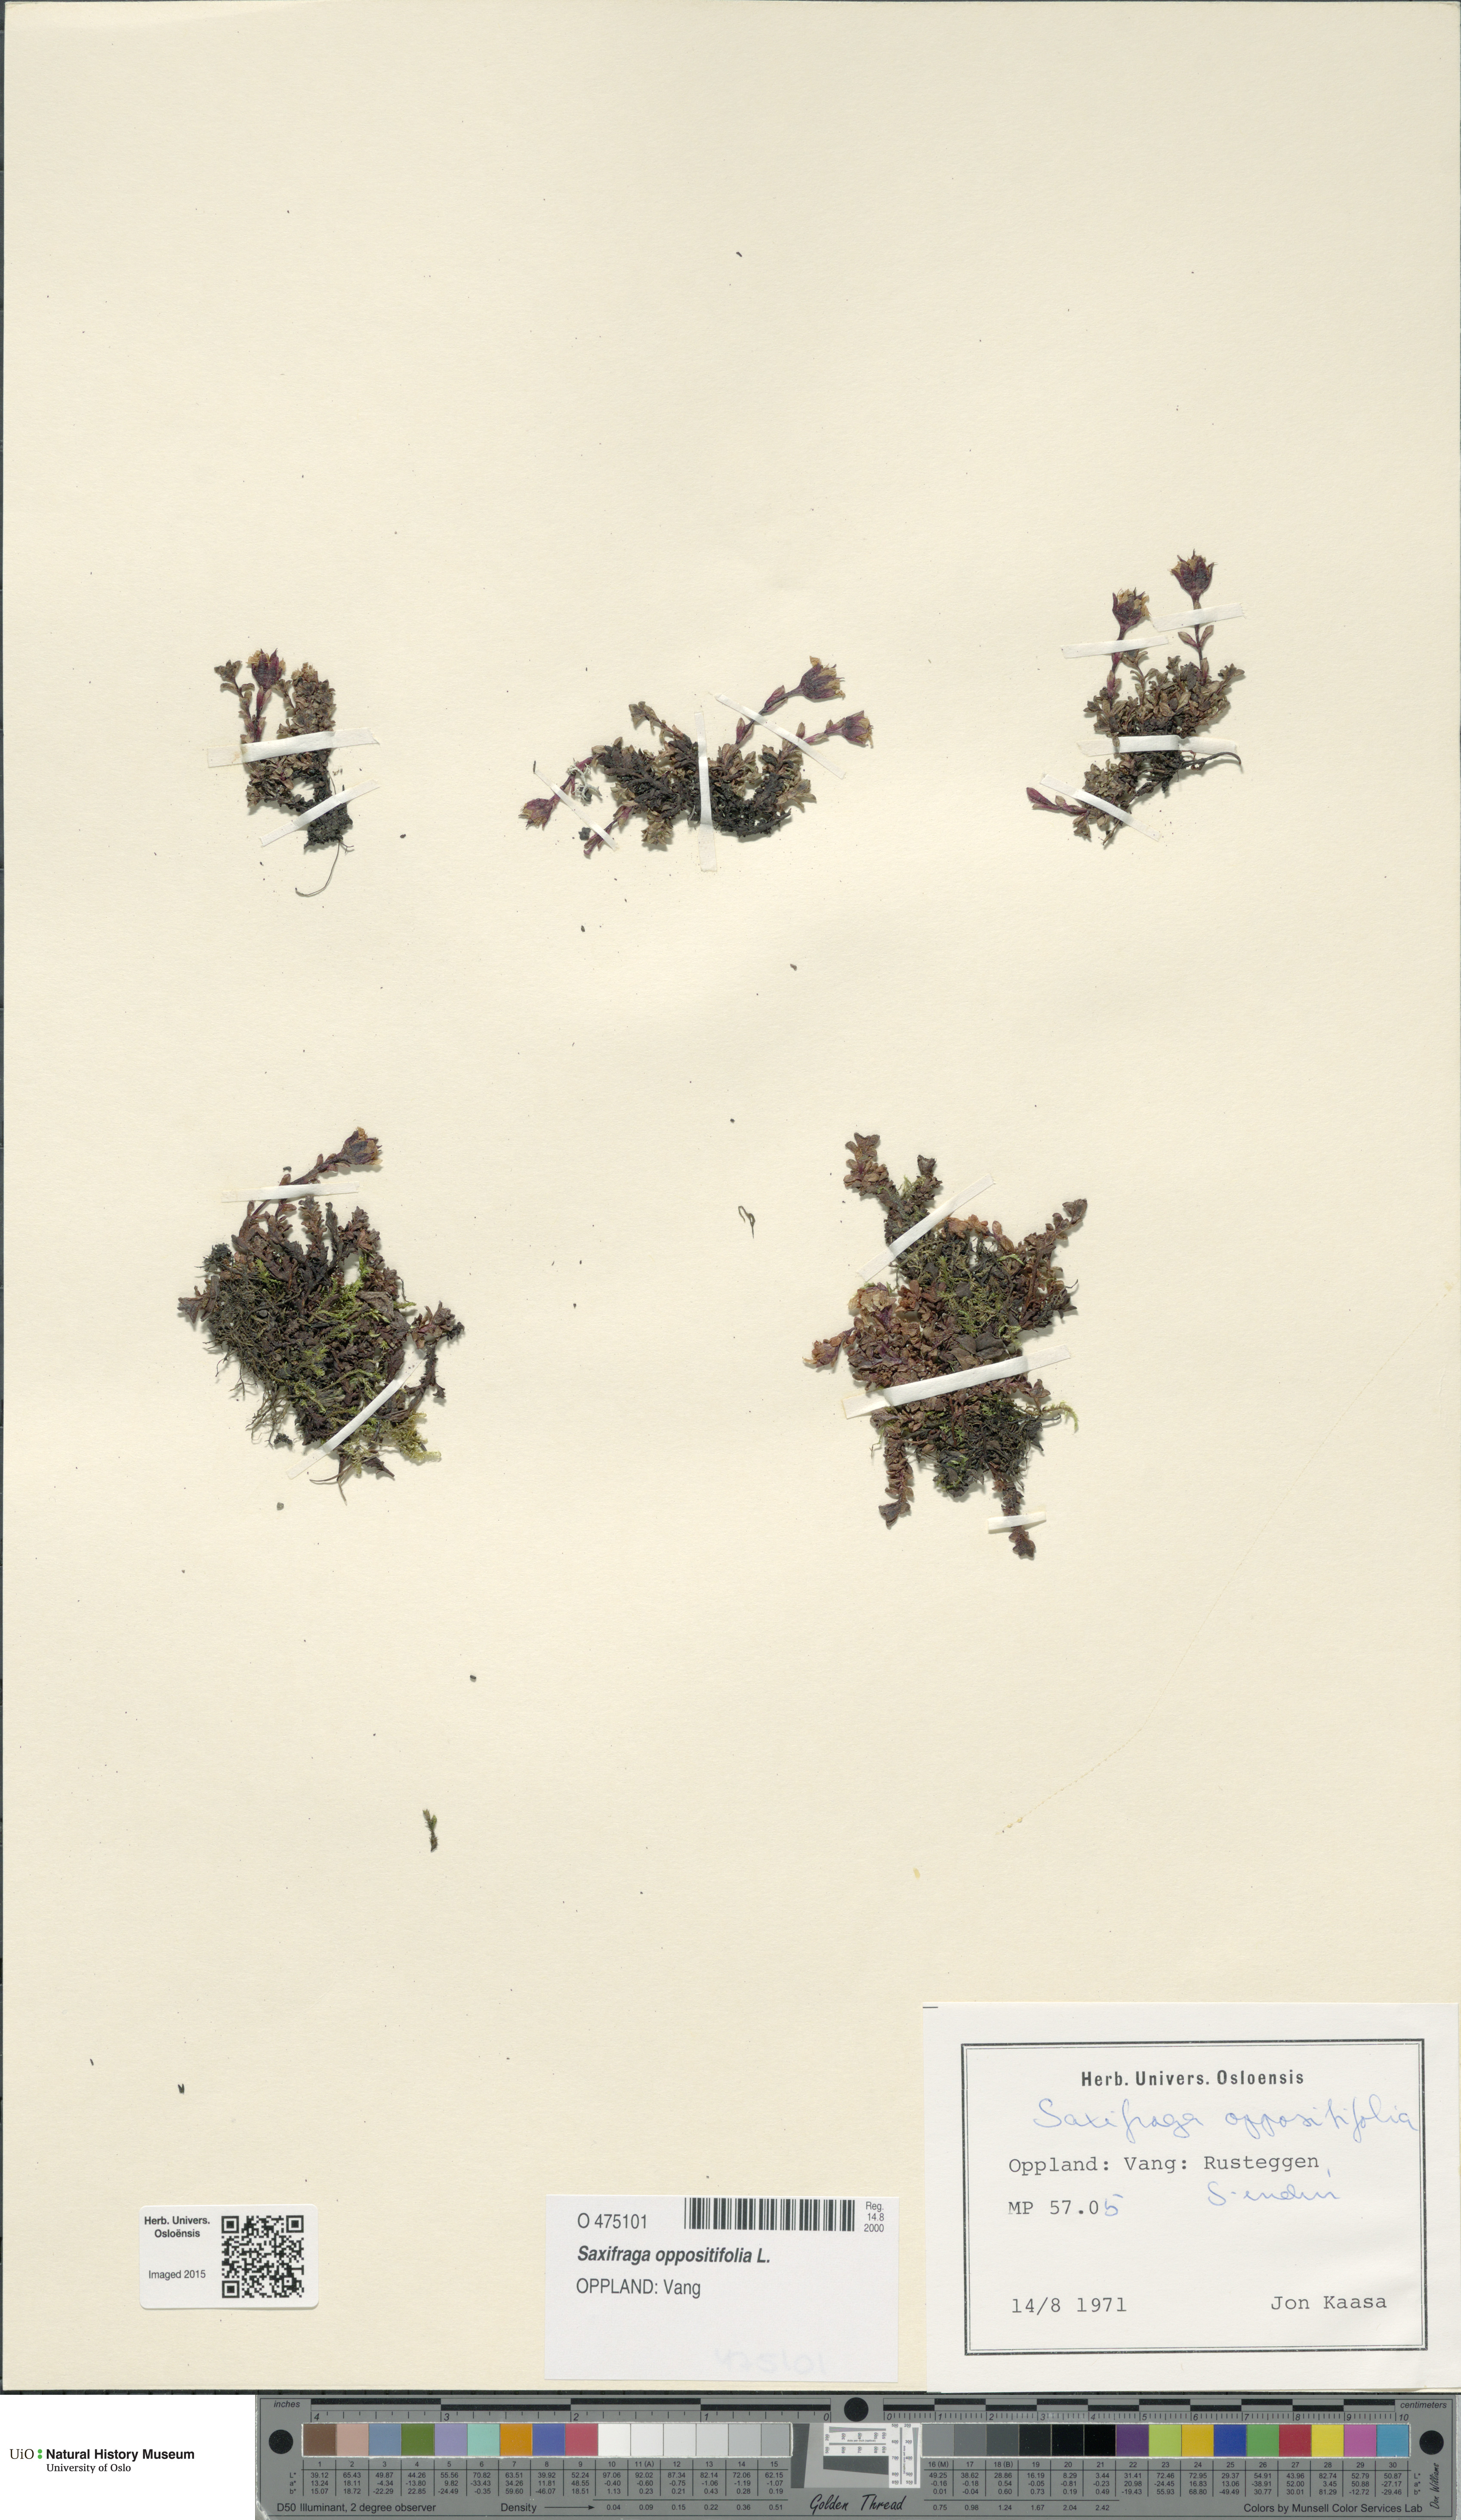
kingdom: Plantae
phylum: Tracheophyta
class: Magnoliopsida
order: Saxifragales
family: Saxifragaceae
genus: Saxifraga
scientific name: Saxifraga oppositifolia
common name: Purple saxifrage
